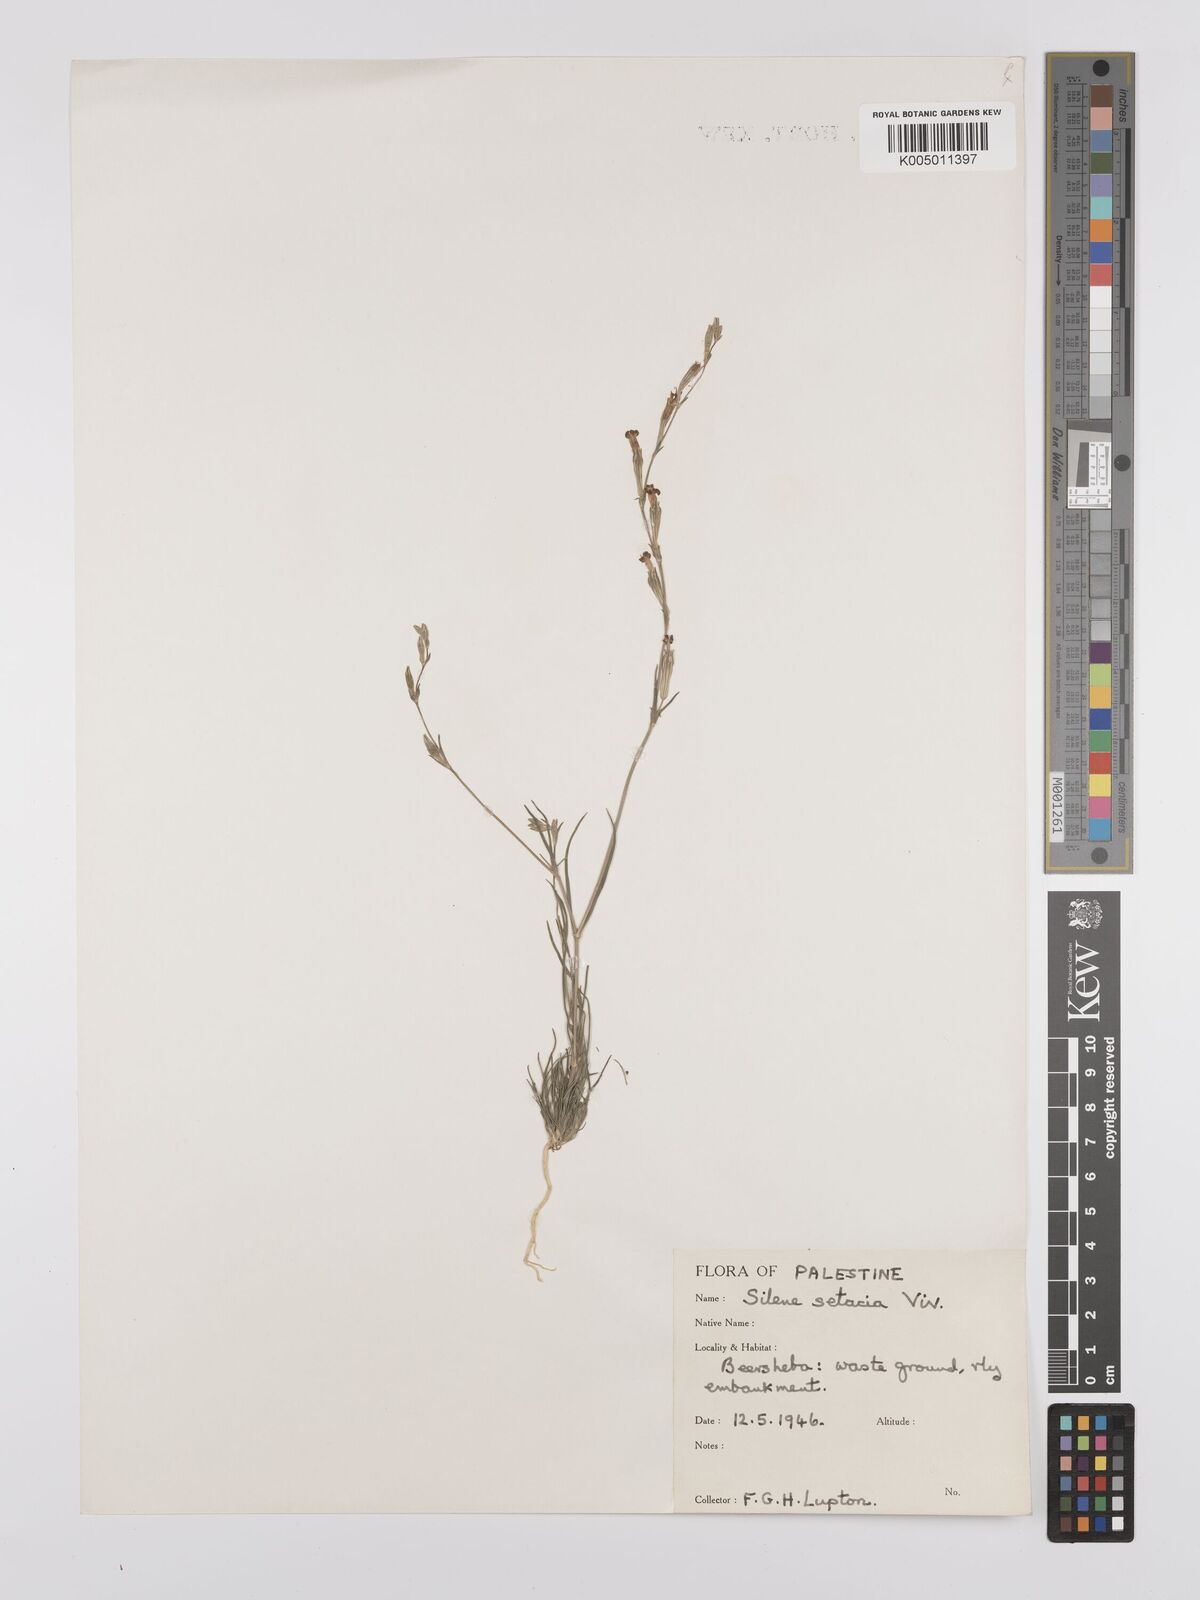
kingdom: Plantae
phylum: Tracheophyta
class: Magnoliopsida
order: Caryophyllales
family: Caryophyllaceae
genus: Silene
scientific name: Silene
